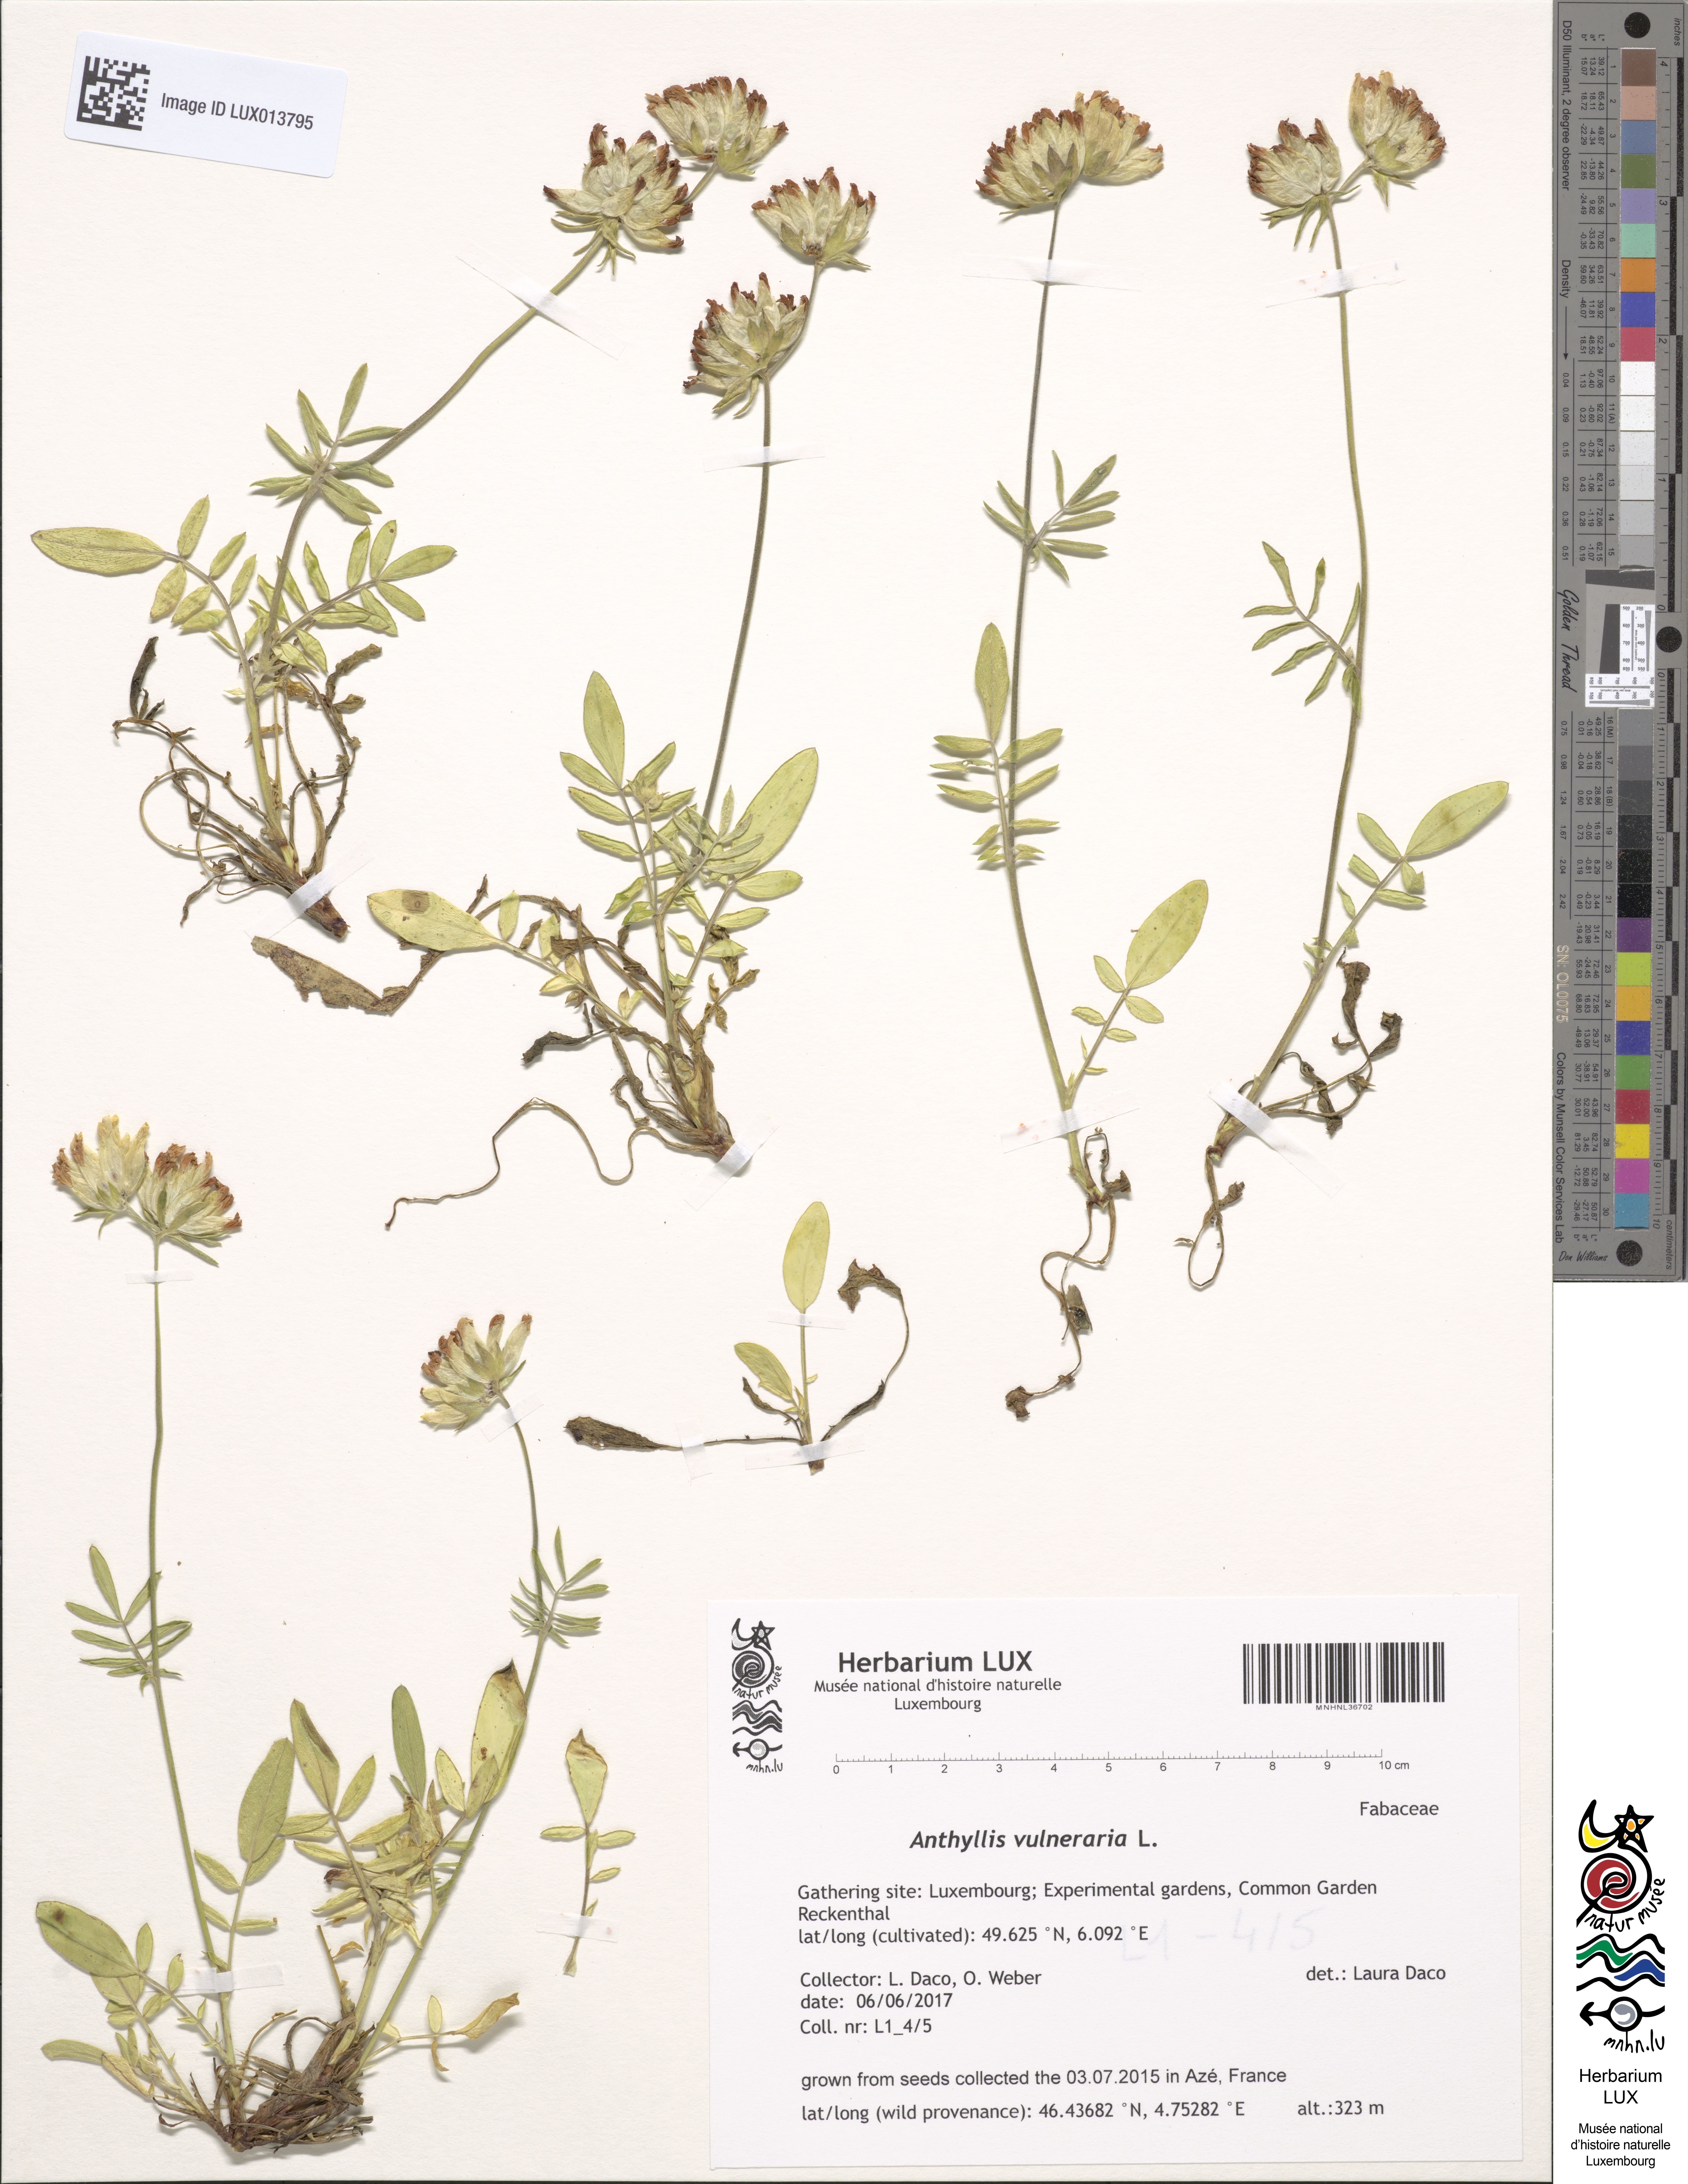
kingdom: Plantae
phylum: Tracheophyta
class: Magnoliopsida
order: Fabales
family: Fabaceae
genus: Anthyllis
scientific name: Anthyllis vulneraria
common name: Kidney vetch
